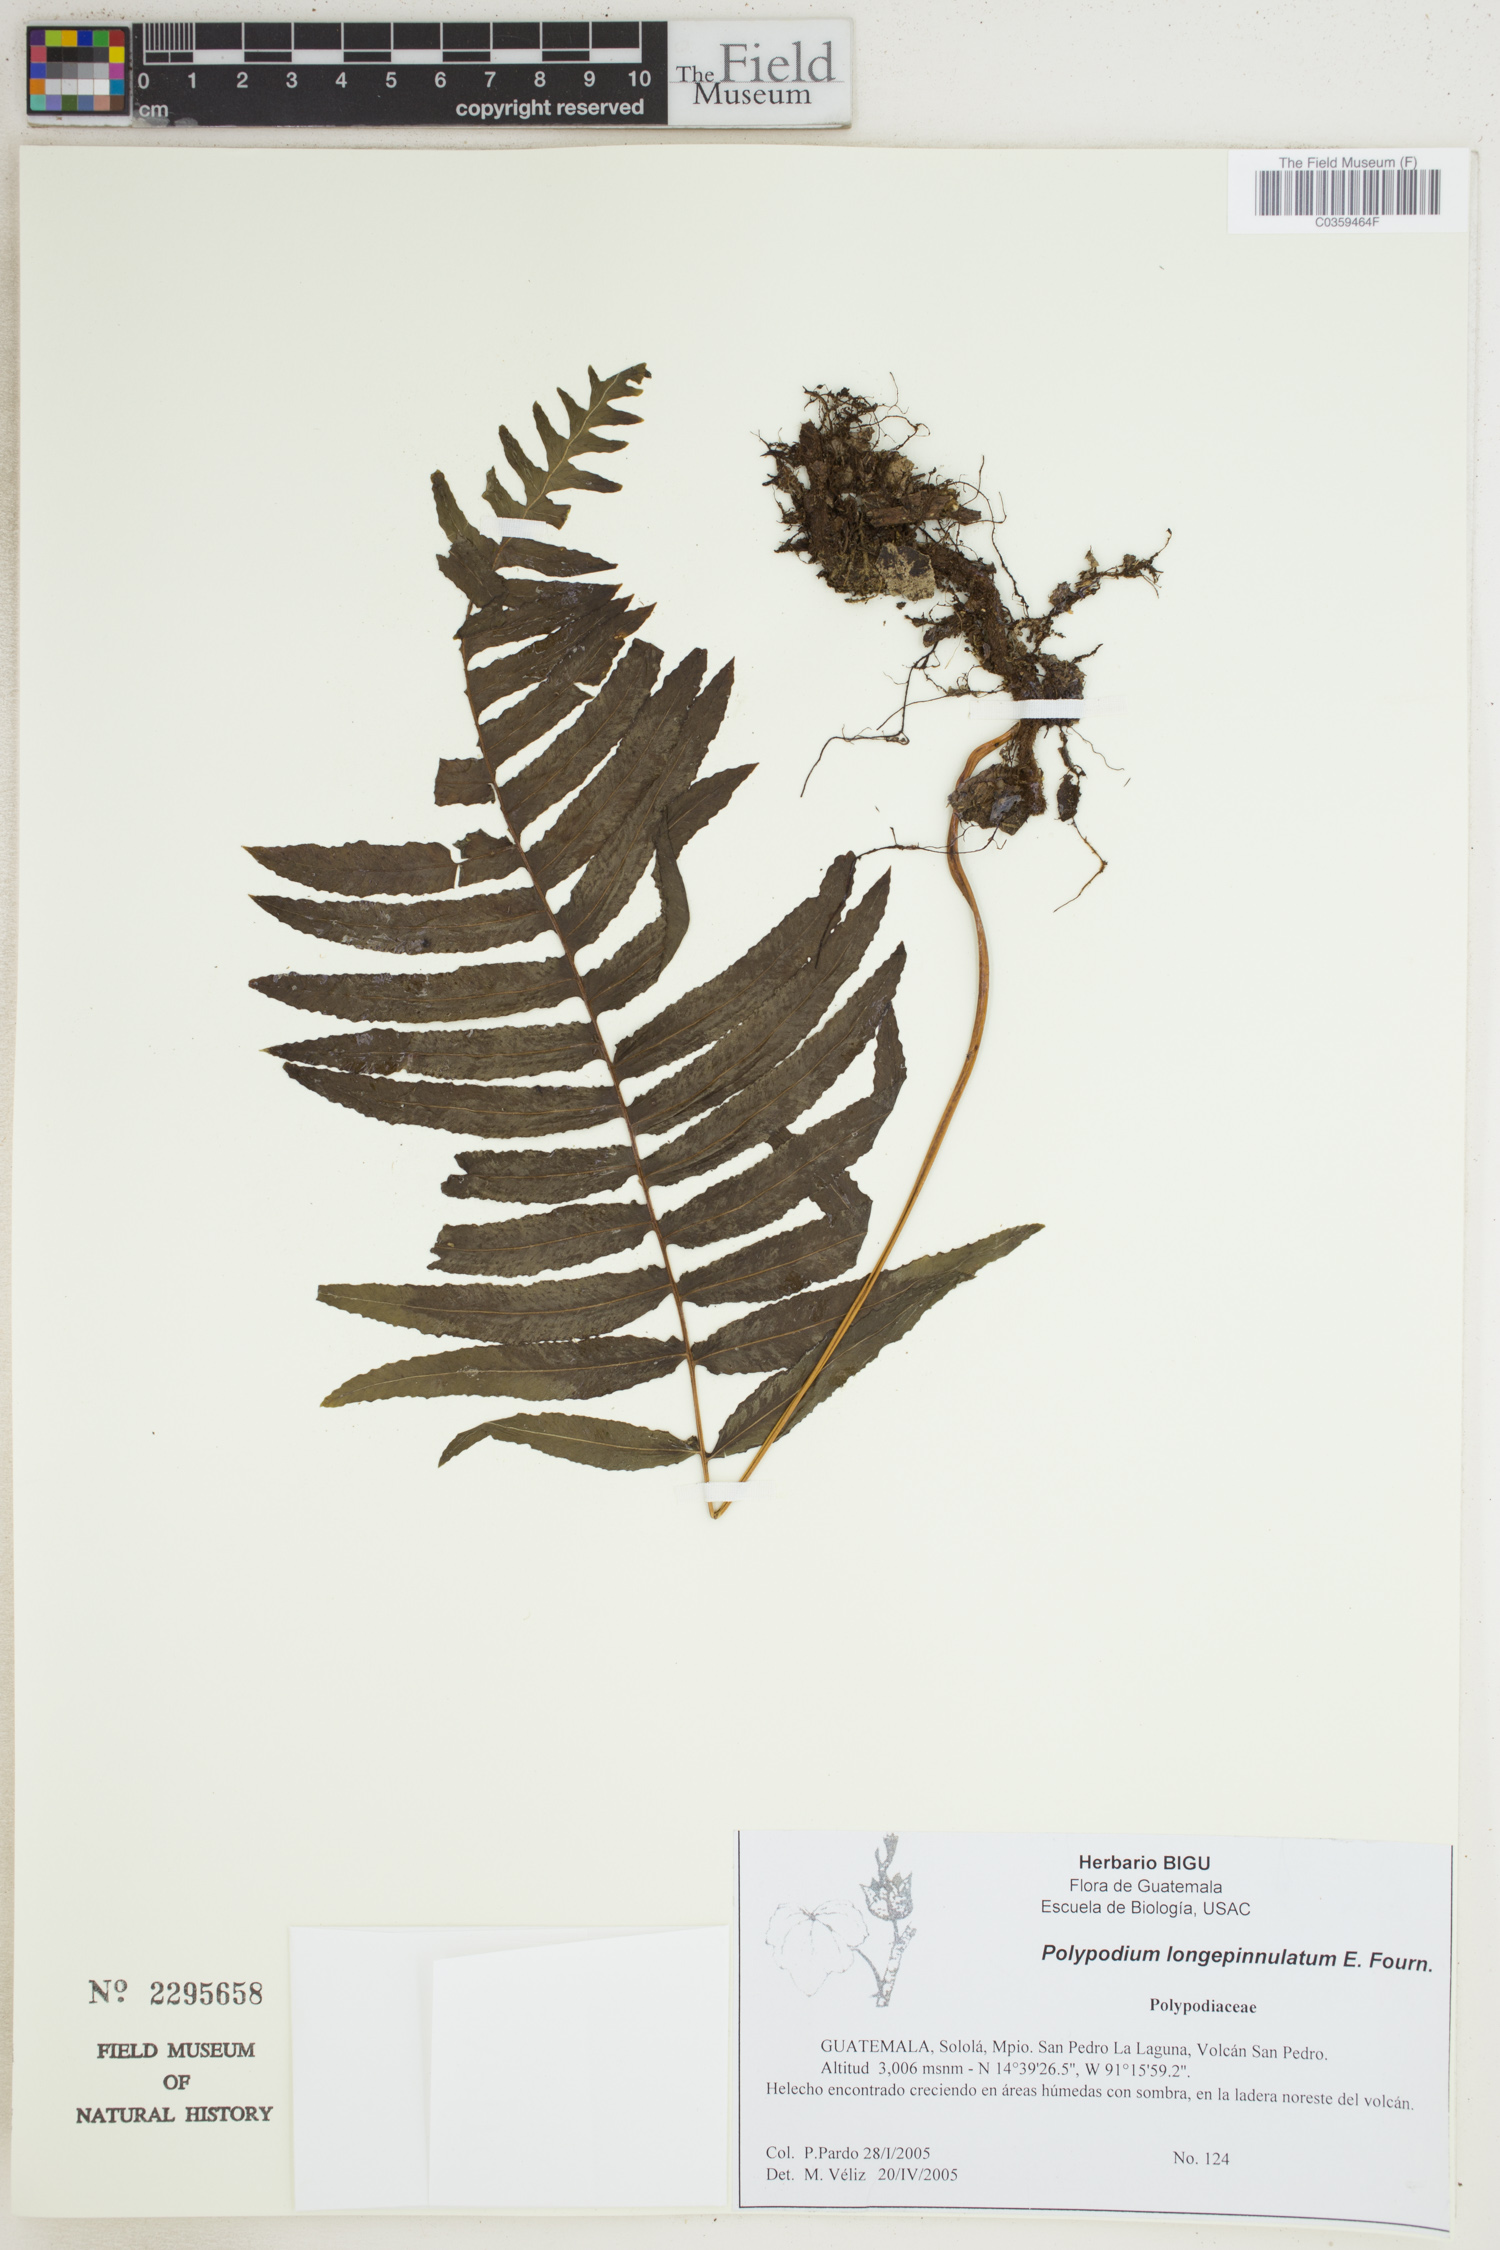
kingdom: Plantae
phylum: Tracheophyta
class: Polypodiopsida
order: Polypodiales
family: Polypodiaceae
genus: Pecluma
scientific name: Pecluma longepinnulata
